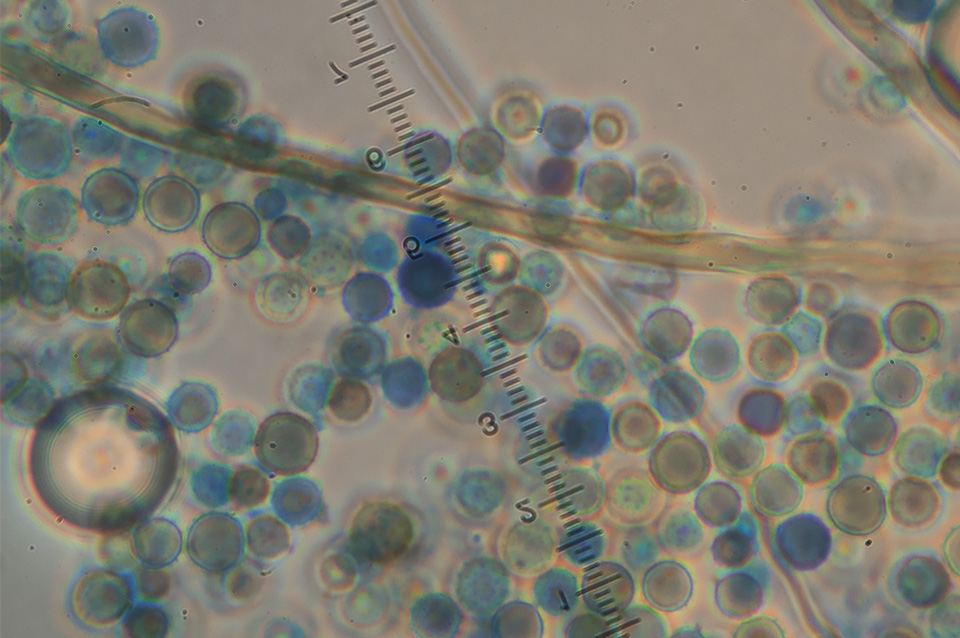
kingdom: Fungi
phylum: Basidiomycota
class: Agaricomycetes
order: Agaricales
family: Lycoperdaceae
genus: Lycoperdon
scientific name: Lycoperdon lividum
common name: mark-støvbold
